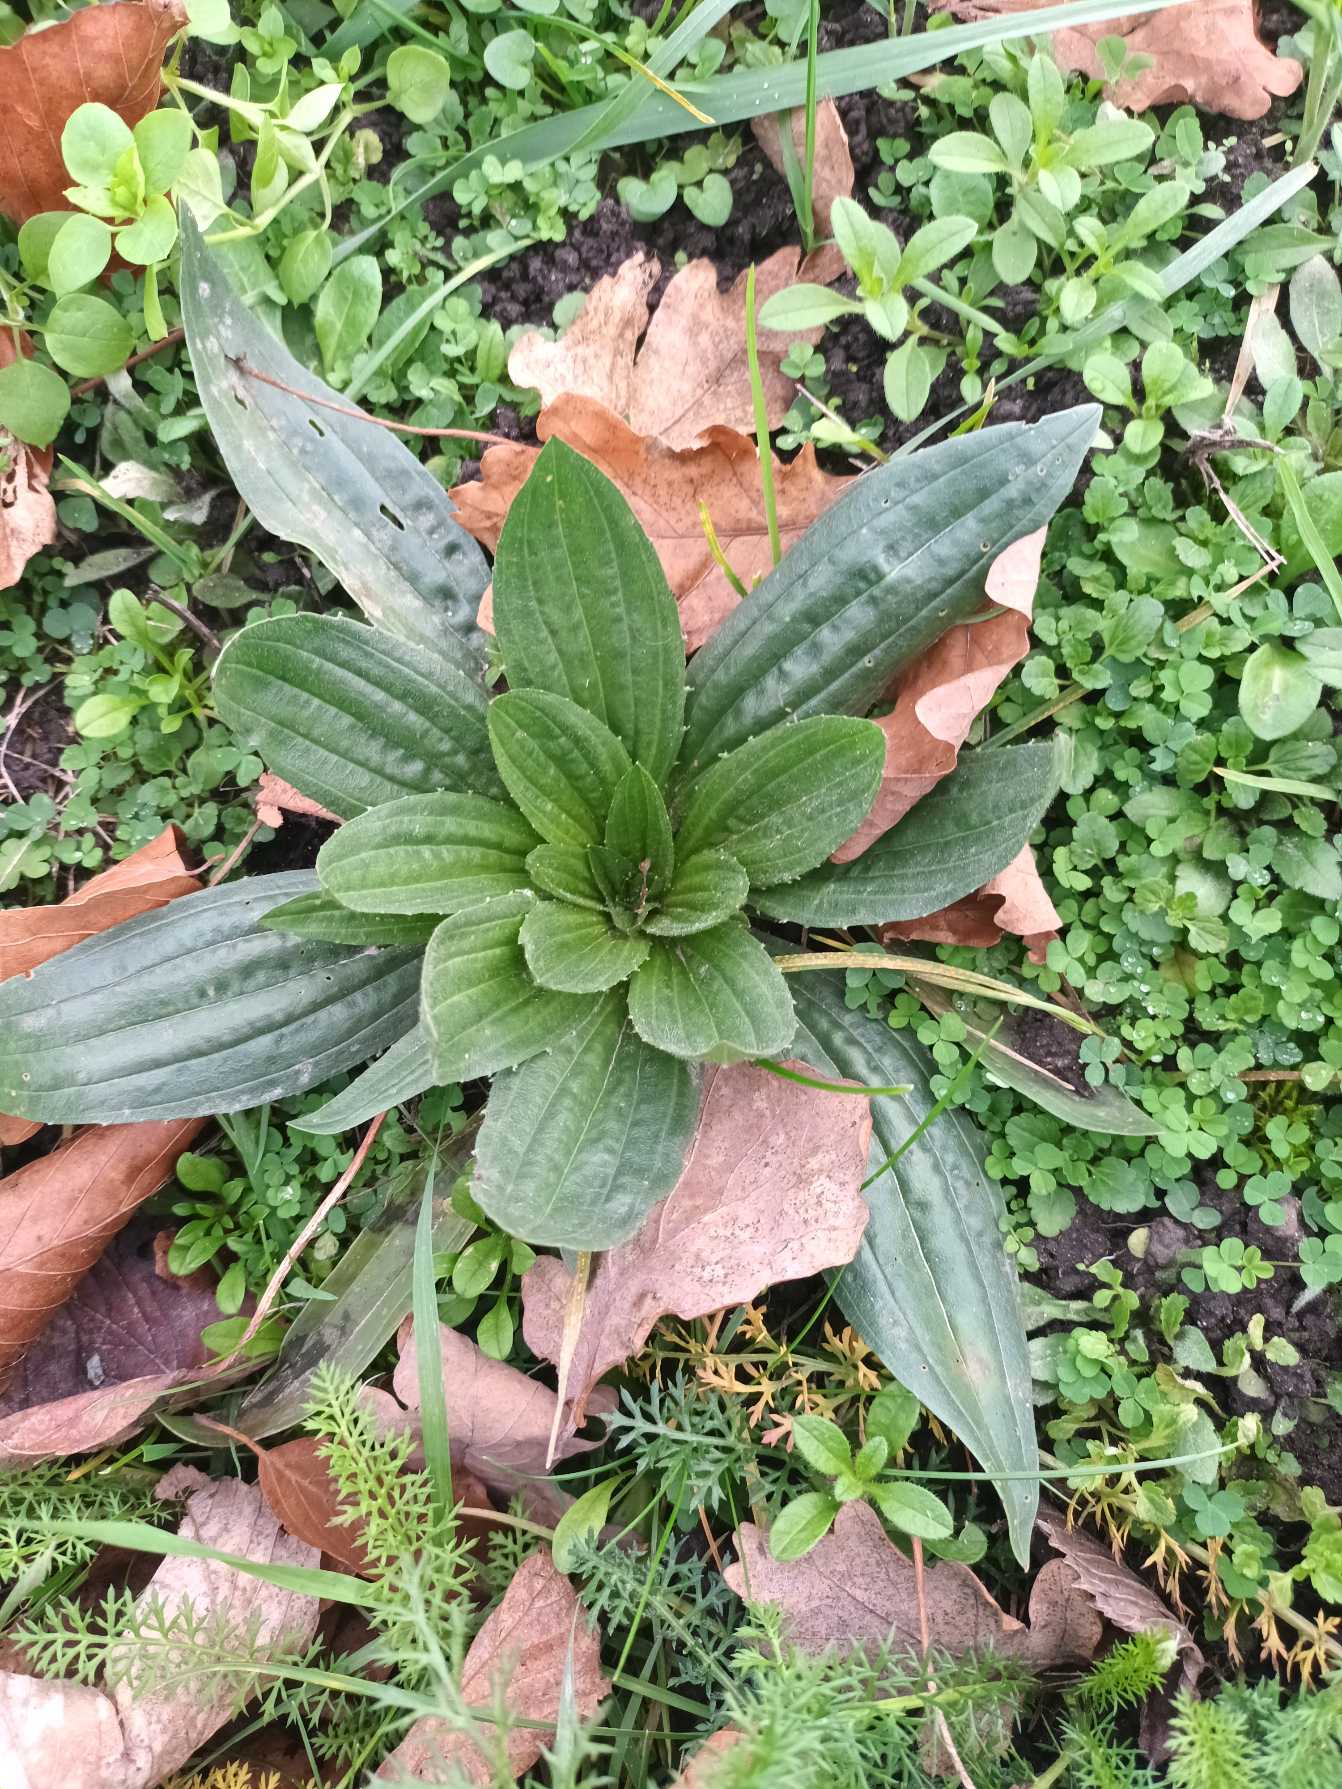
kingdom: Plantae
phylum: Tracheophyta
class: Magnoliopsida
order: Lamiales
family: Plantaginaceae
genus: Plantago
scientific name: Plantago lanceolata
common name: Lancet-vejbred
